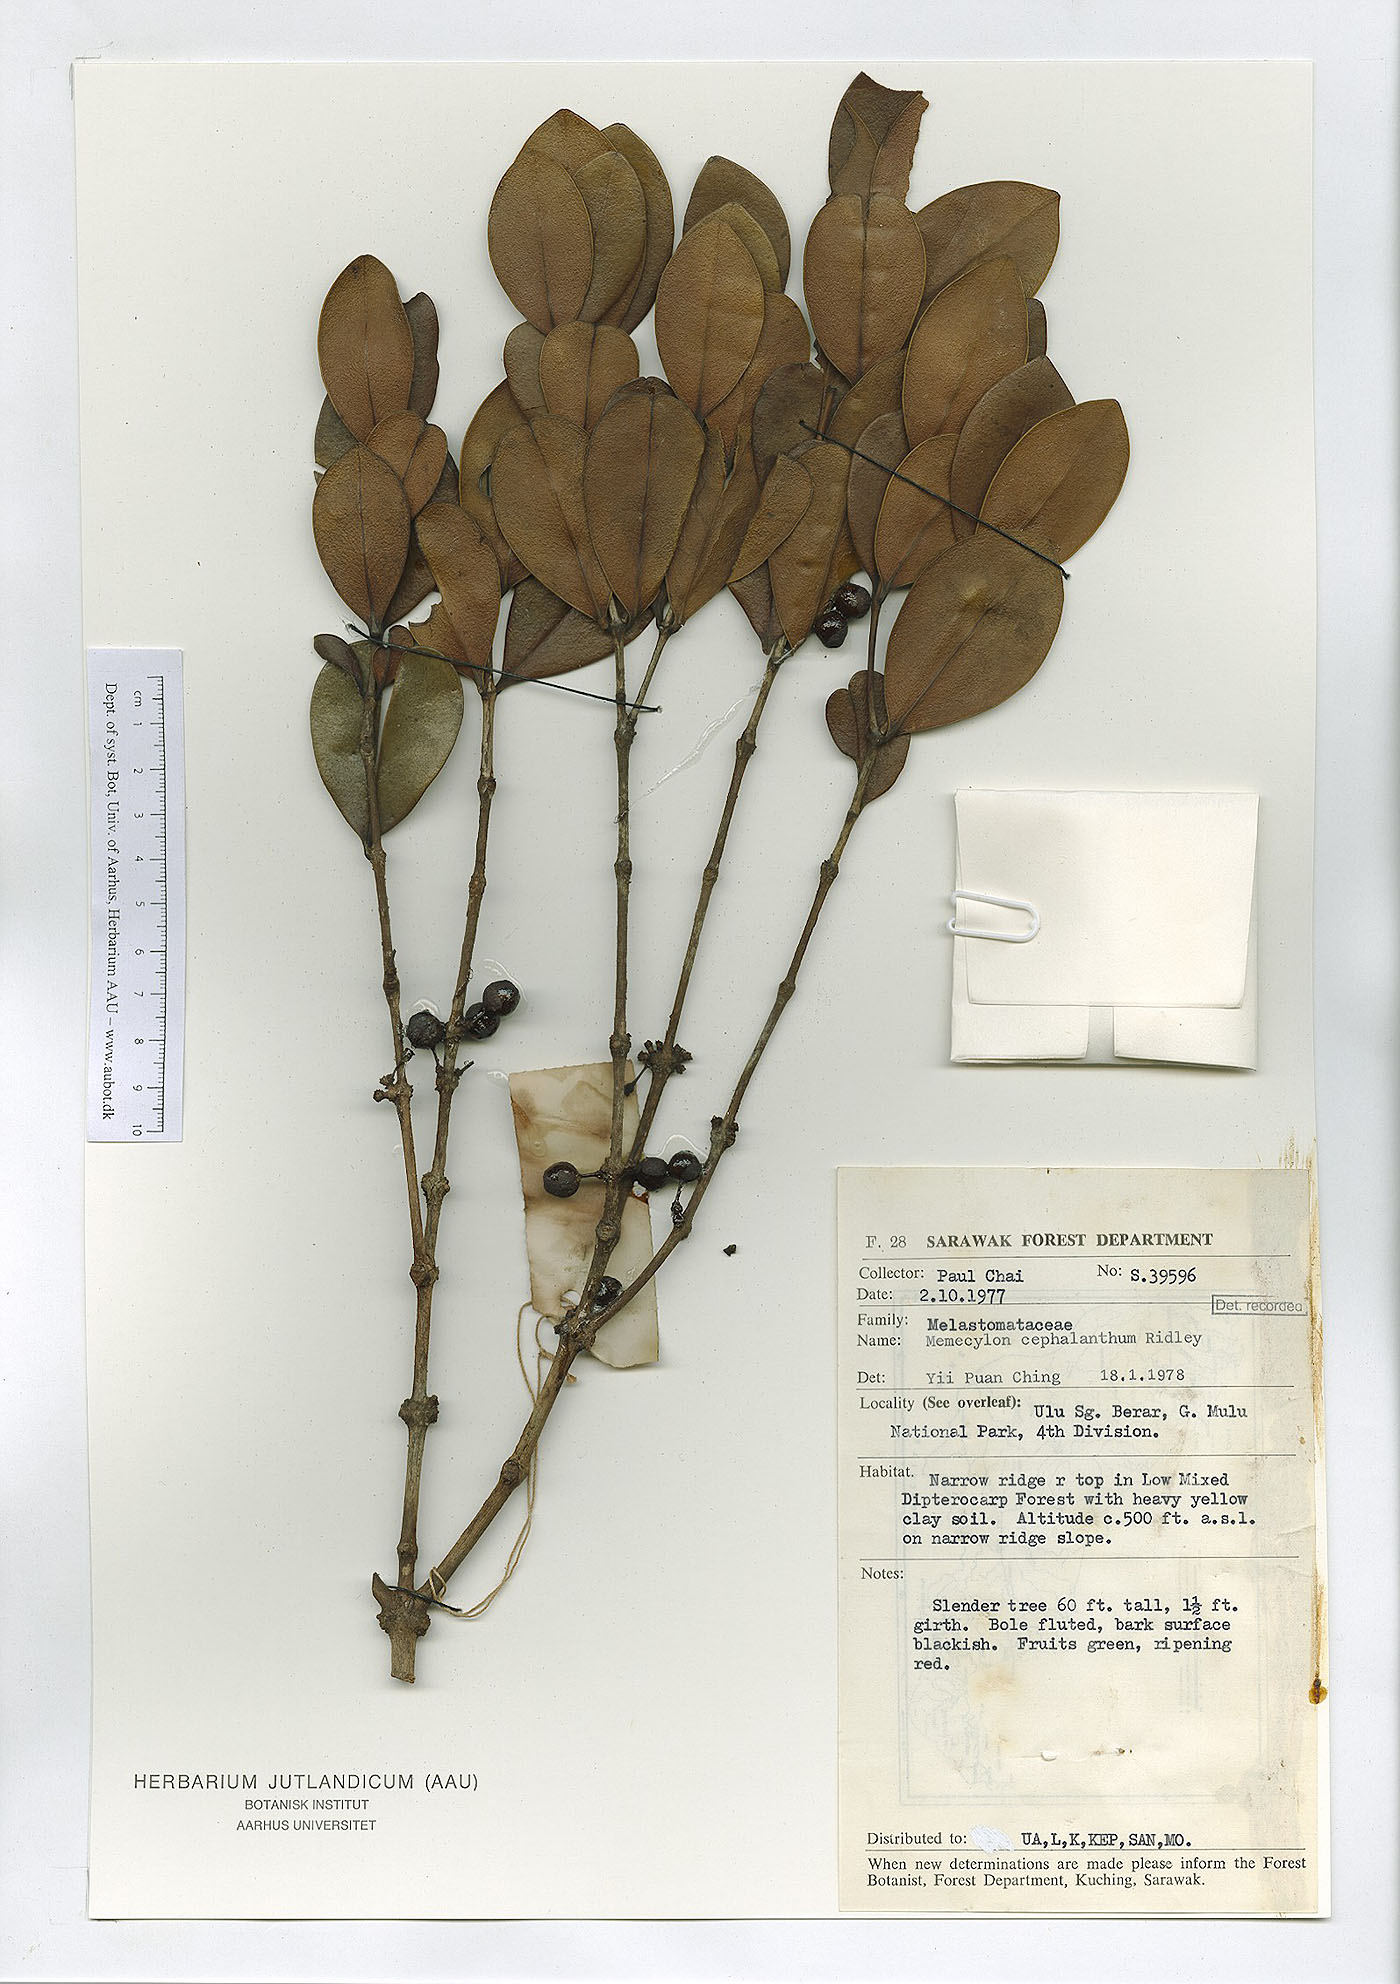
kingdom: Plantae
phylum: Tracheophyta
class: Magnoliopsida
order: Myrtales
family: Melastomataceae
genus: Memecylon
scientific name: Memecylon campanulatum
